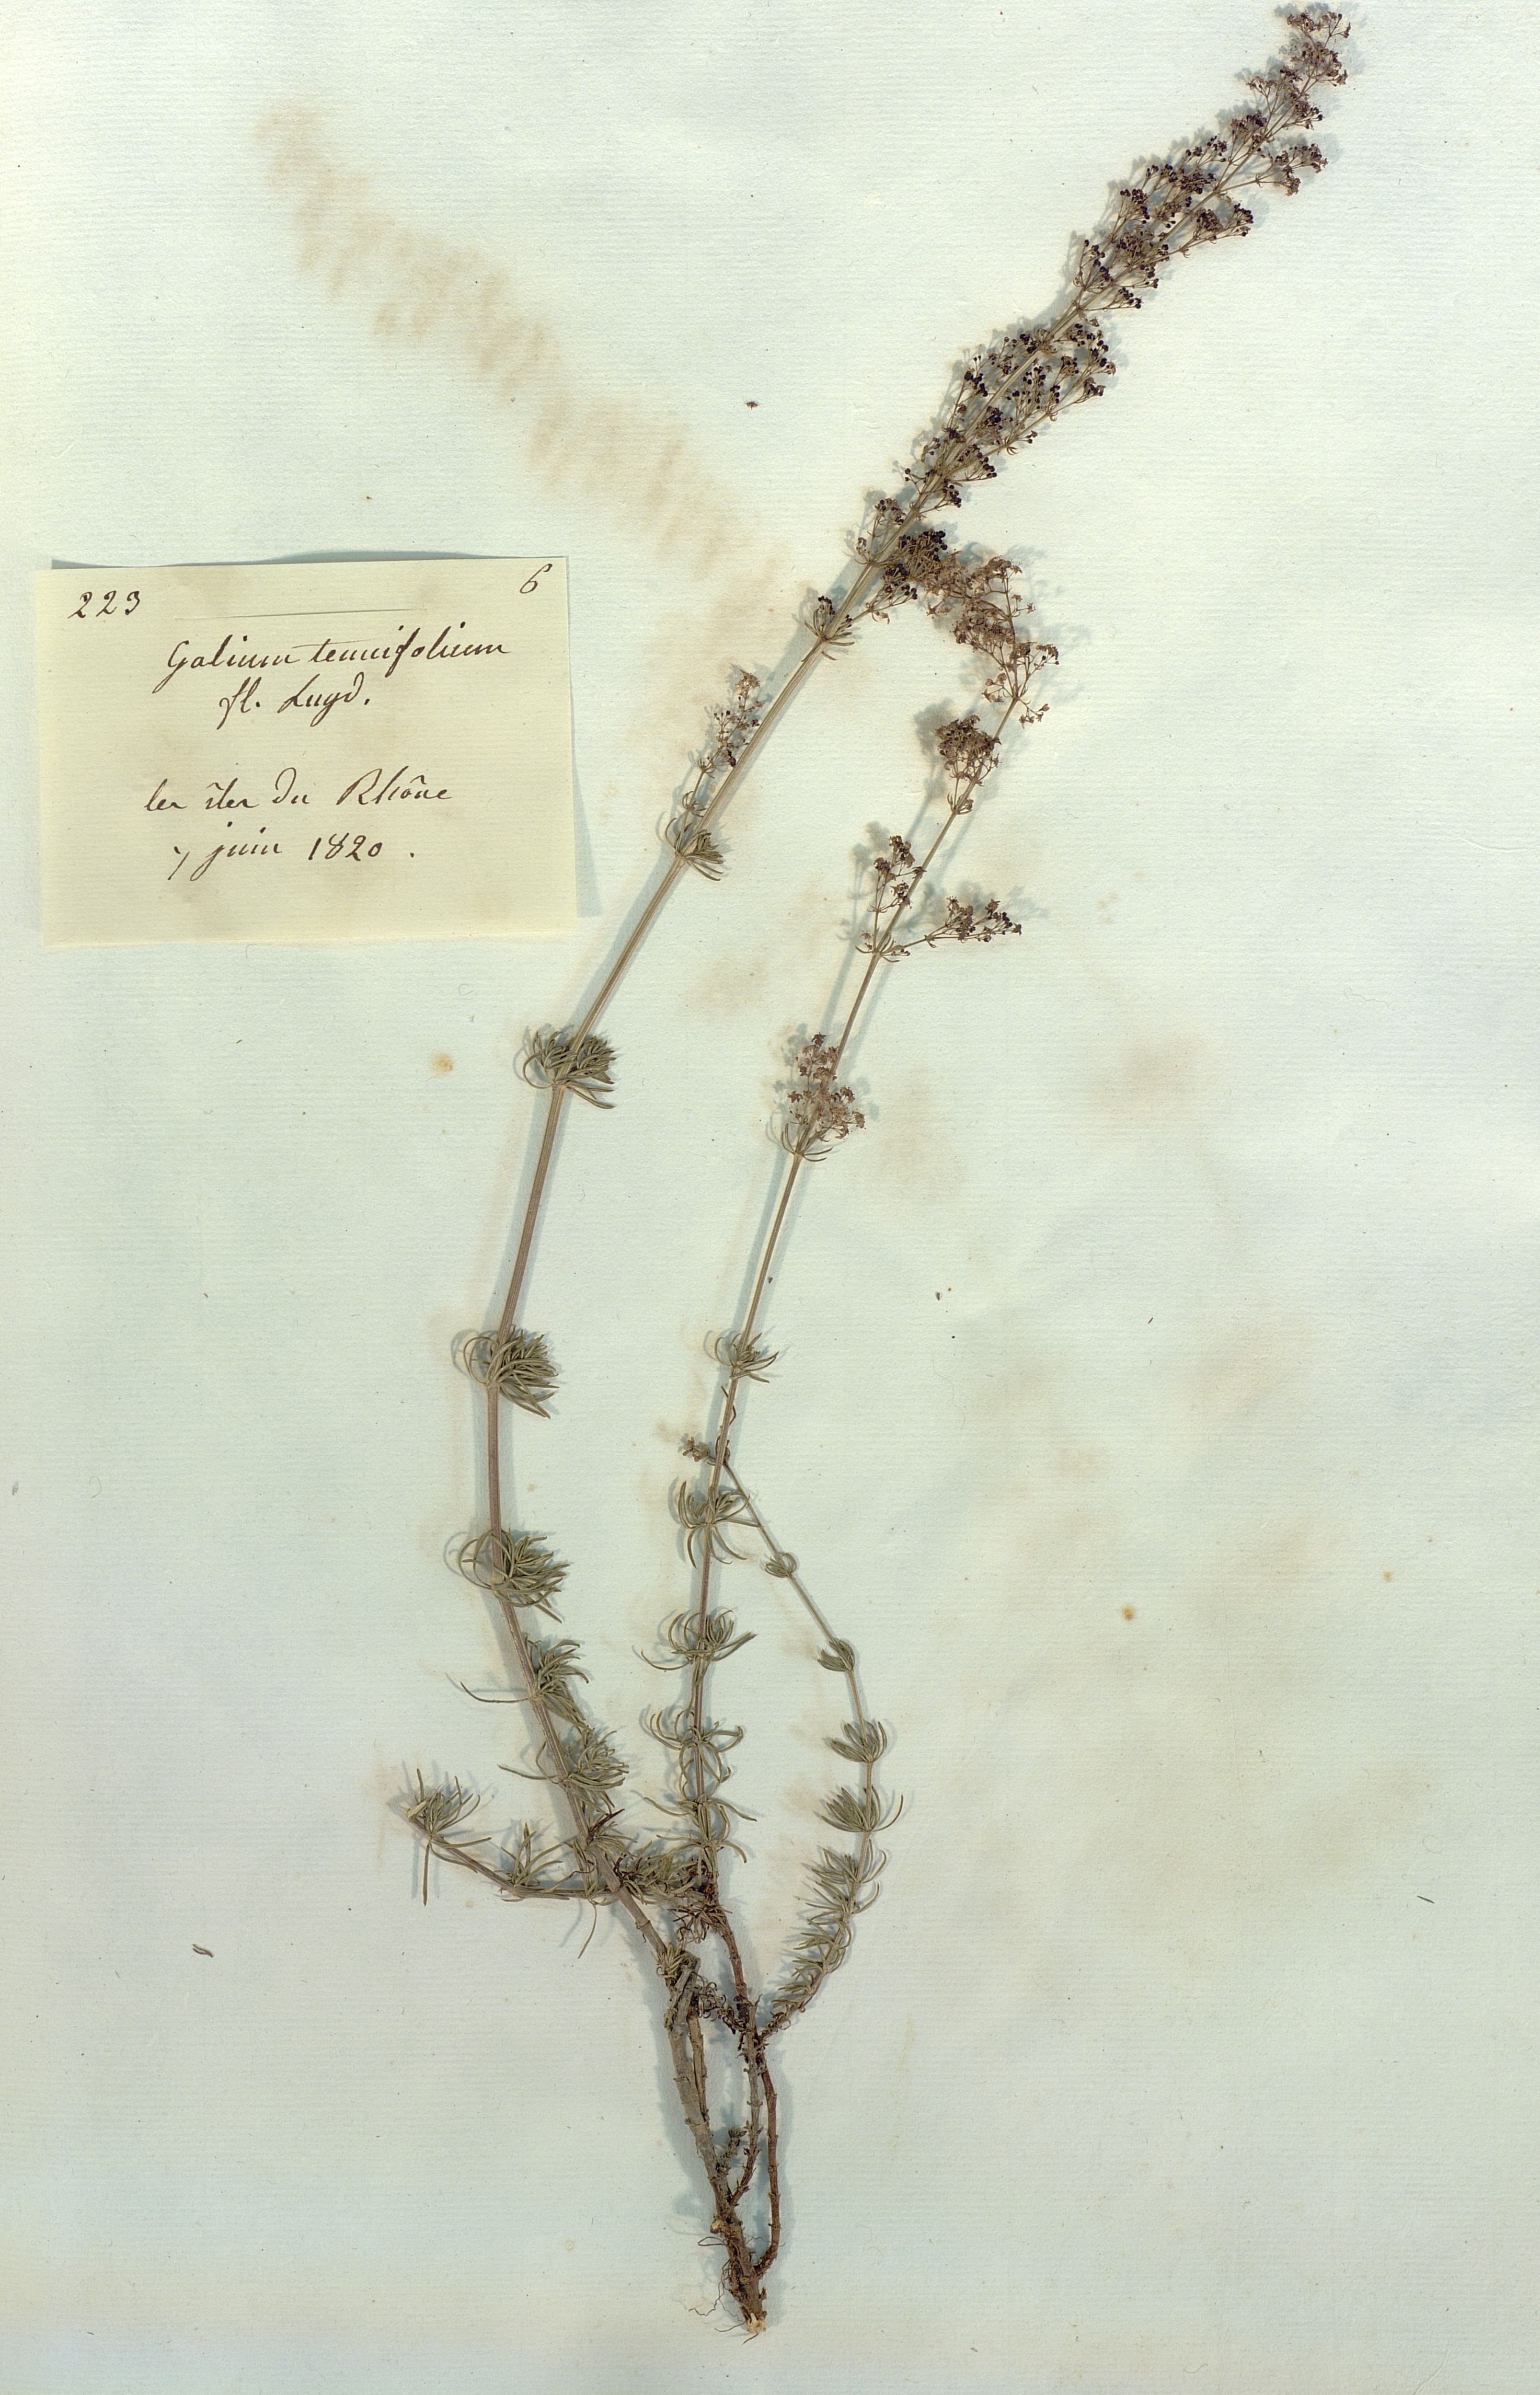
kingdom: Plantae
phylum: Tracheophyta
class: Magnoliopsida
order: Gentianales
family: Rubiaceae
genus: Galium
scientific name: Galium lucidum
